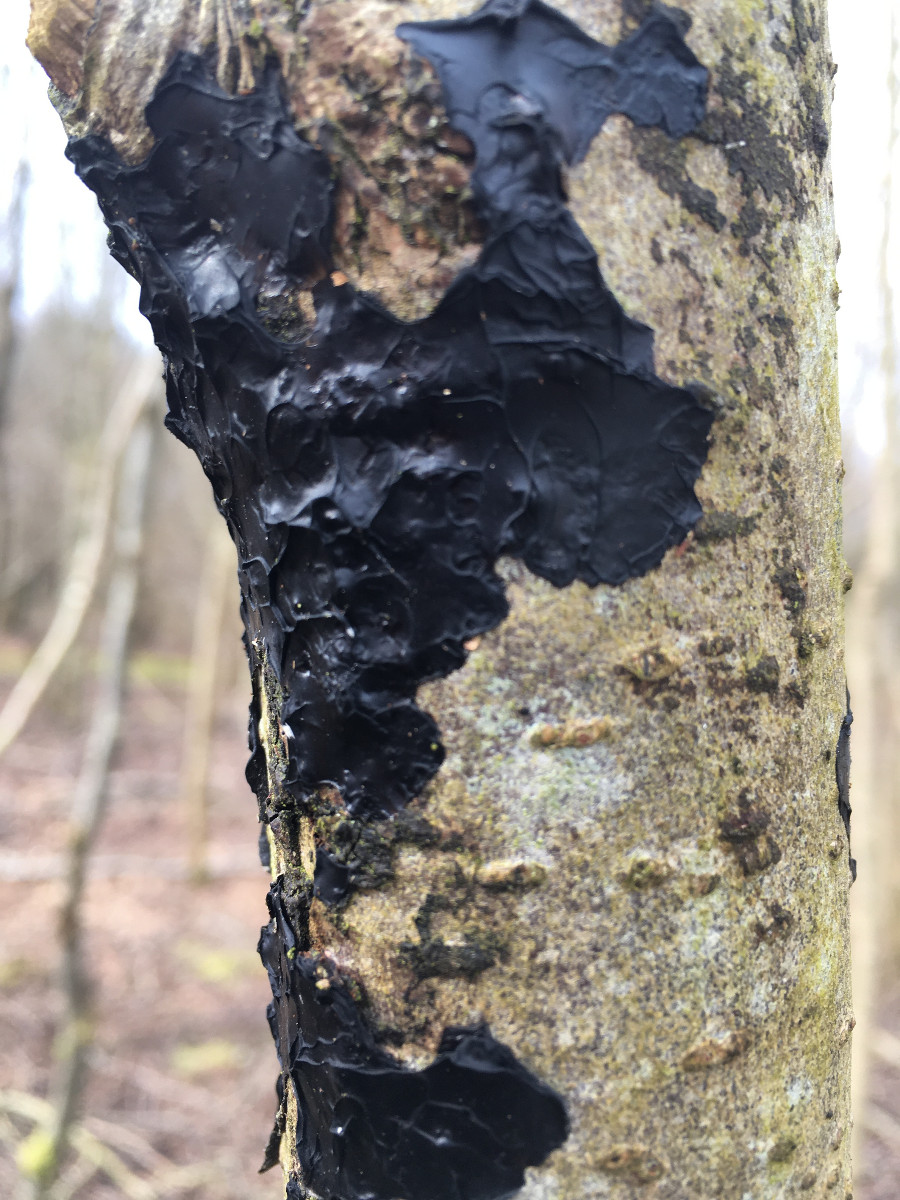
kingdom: Fungi
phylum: Basidiomycota
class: Agaricomycetes
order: Auriculariales
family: Auriculariaceae
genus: Exidia
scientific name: Exidia nigricans
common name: almindelig bævretop
